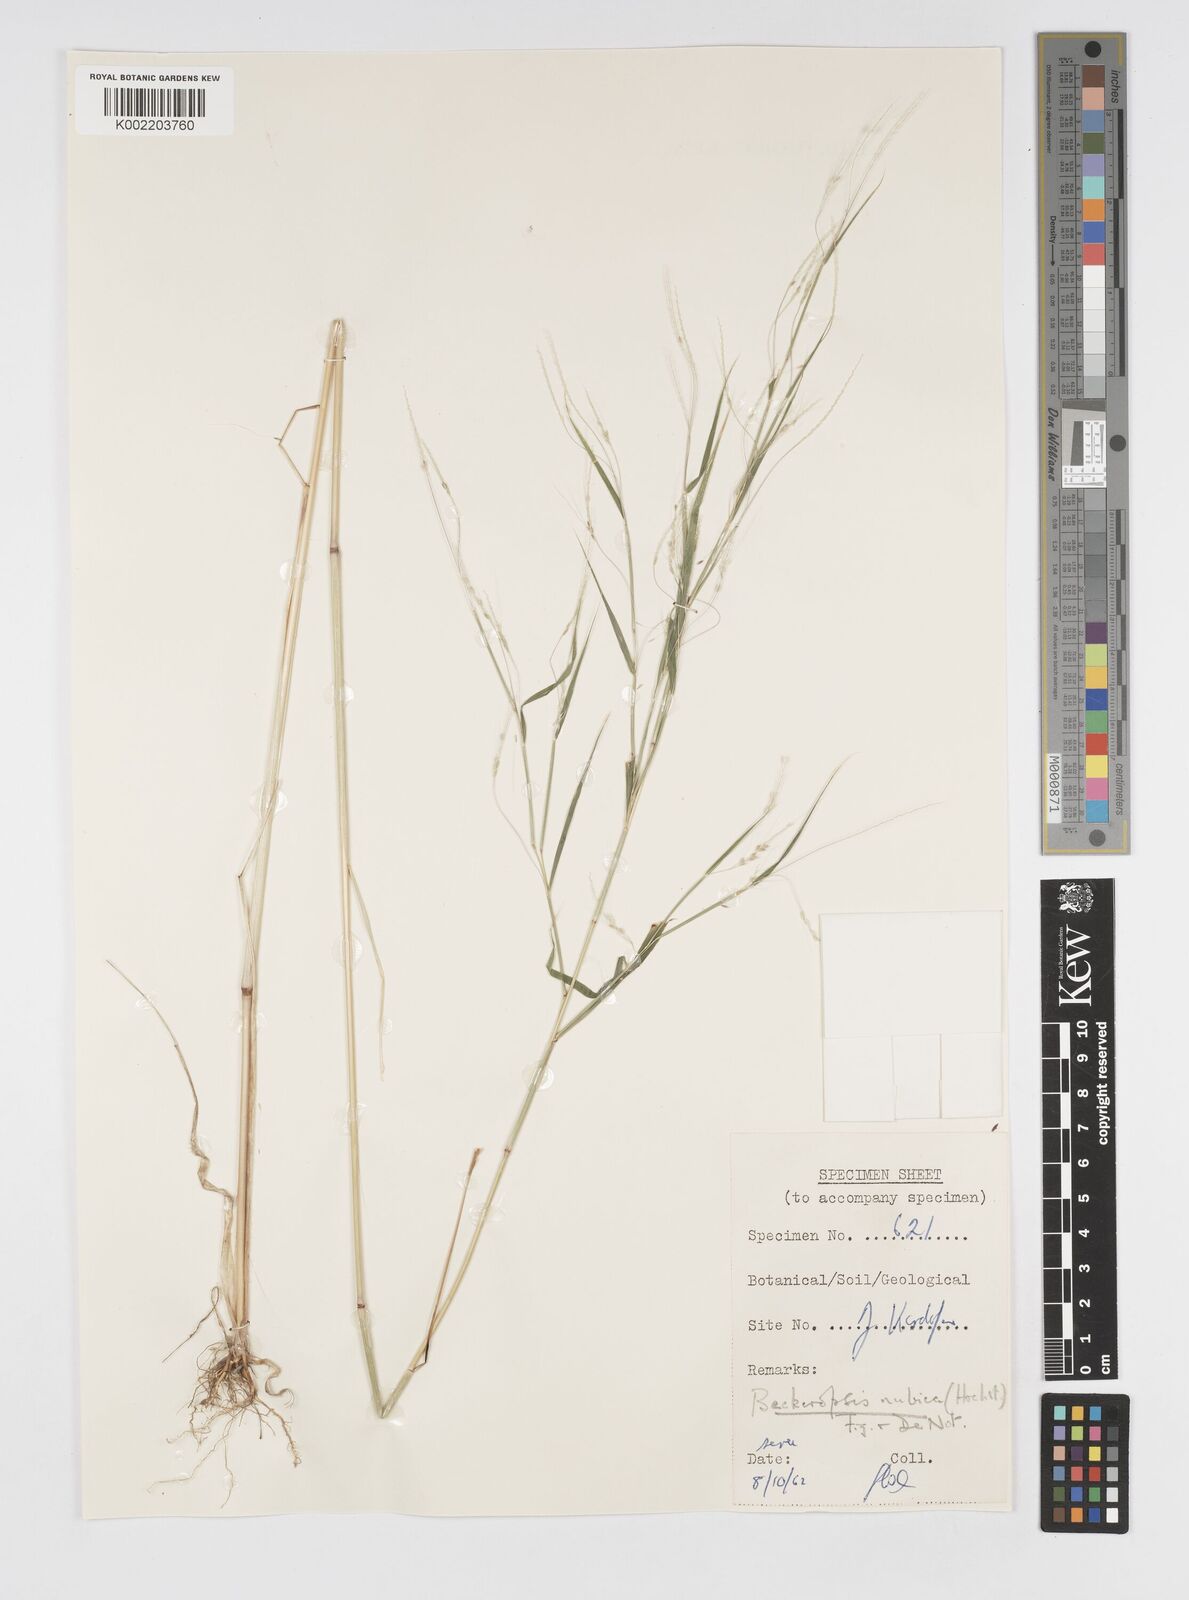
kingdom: Plantae
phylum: Tracheophyta
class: Liliopsida
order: Poales
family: Poaceae
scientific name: Poaceae
